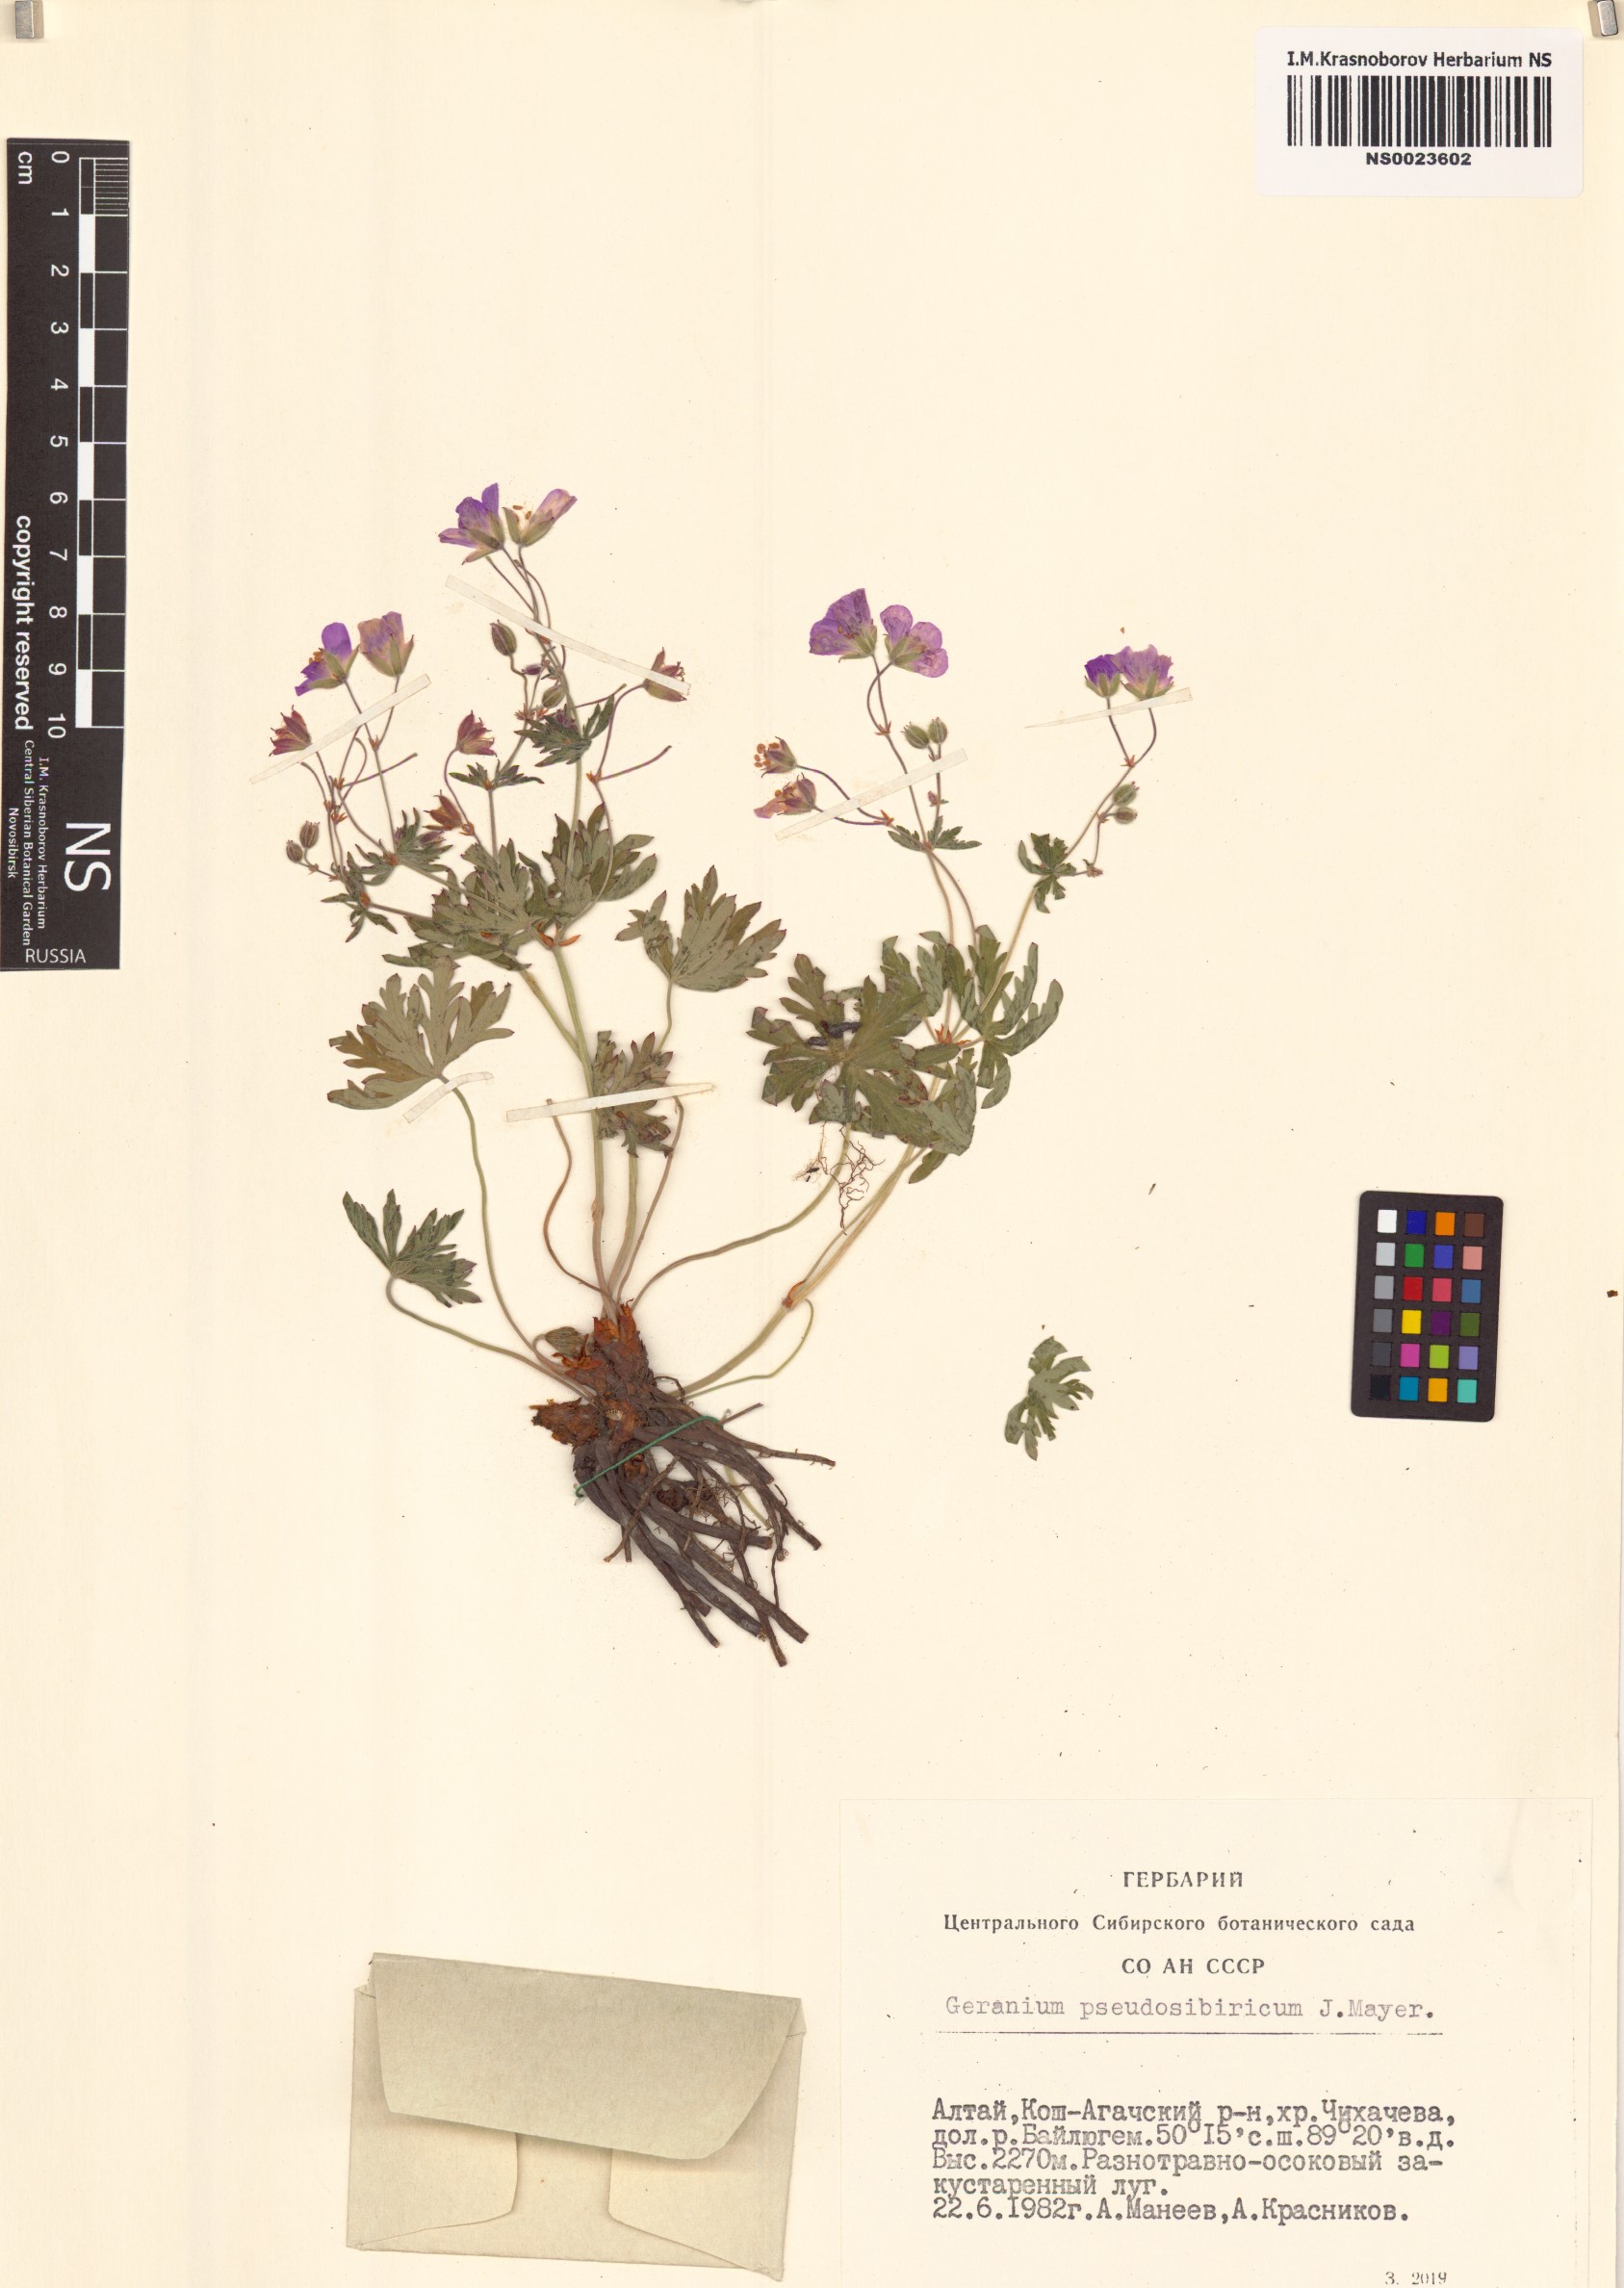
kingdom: Plantae
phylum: Tracheophyta
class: Magnoliopsida
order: Geraniales
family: Geraniaceae
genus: Geranium
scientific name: Geranium pseudosibiricum
